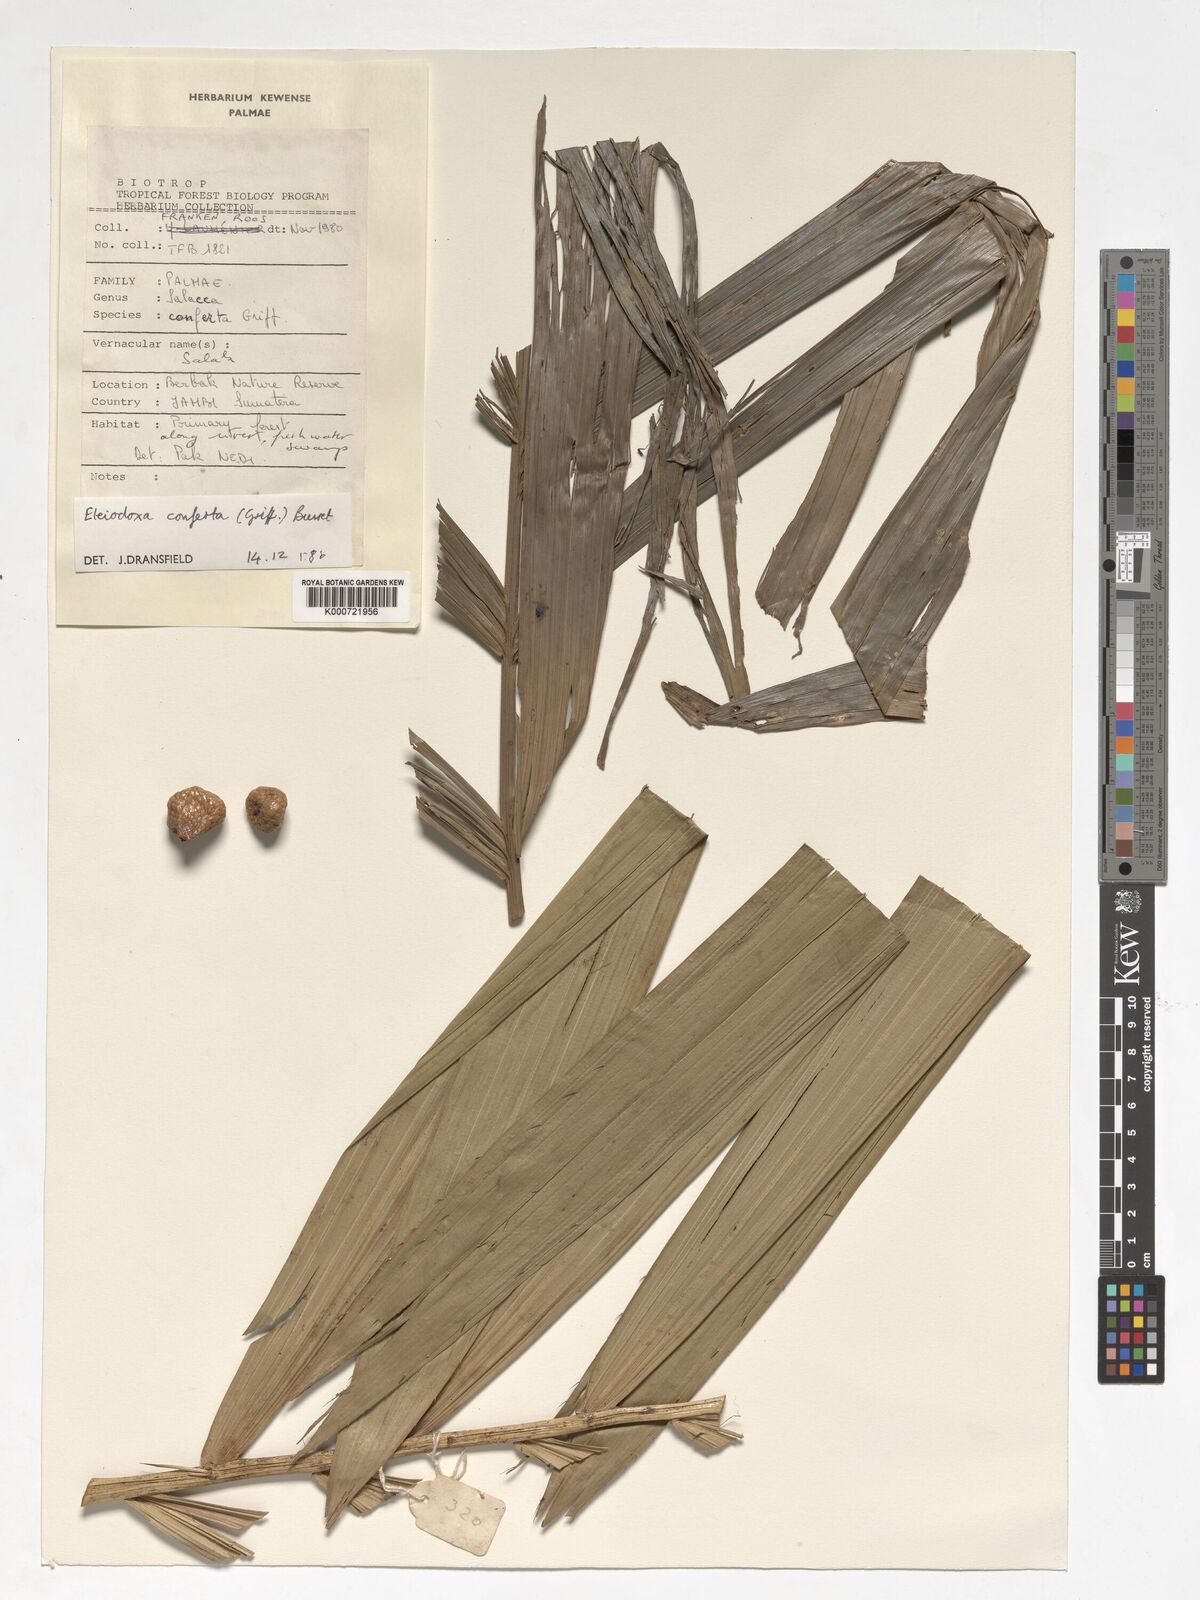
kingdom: Plantae
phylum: Tracheophyta
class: Liliopsida
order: Arecales
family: Arecaceae
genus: Eleiodoxa
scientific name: Eleiodoxa conferta
